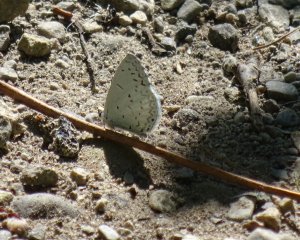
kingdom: Animalia
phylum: Arthropoda
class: Insecta
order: Lepidoptera
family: Lycaenidae
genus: Cyaniris
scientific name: Cyaniris neglecta
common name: Summer Azure
